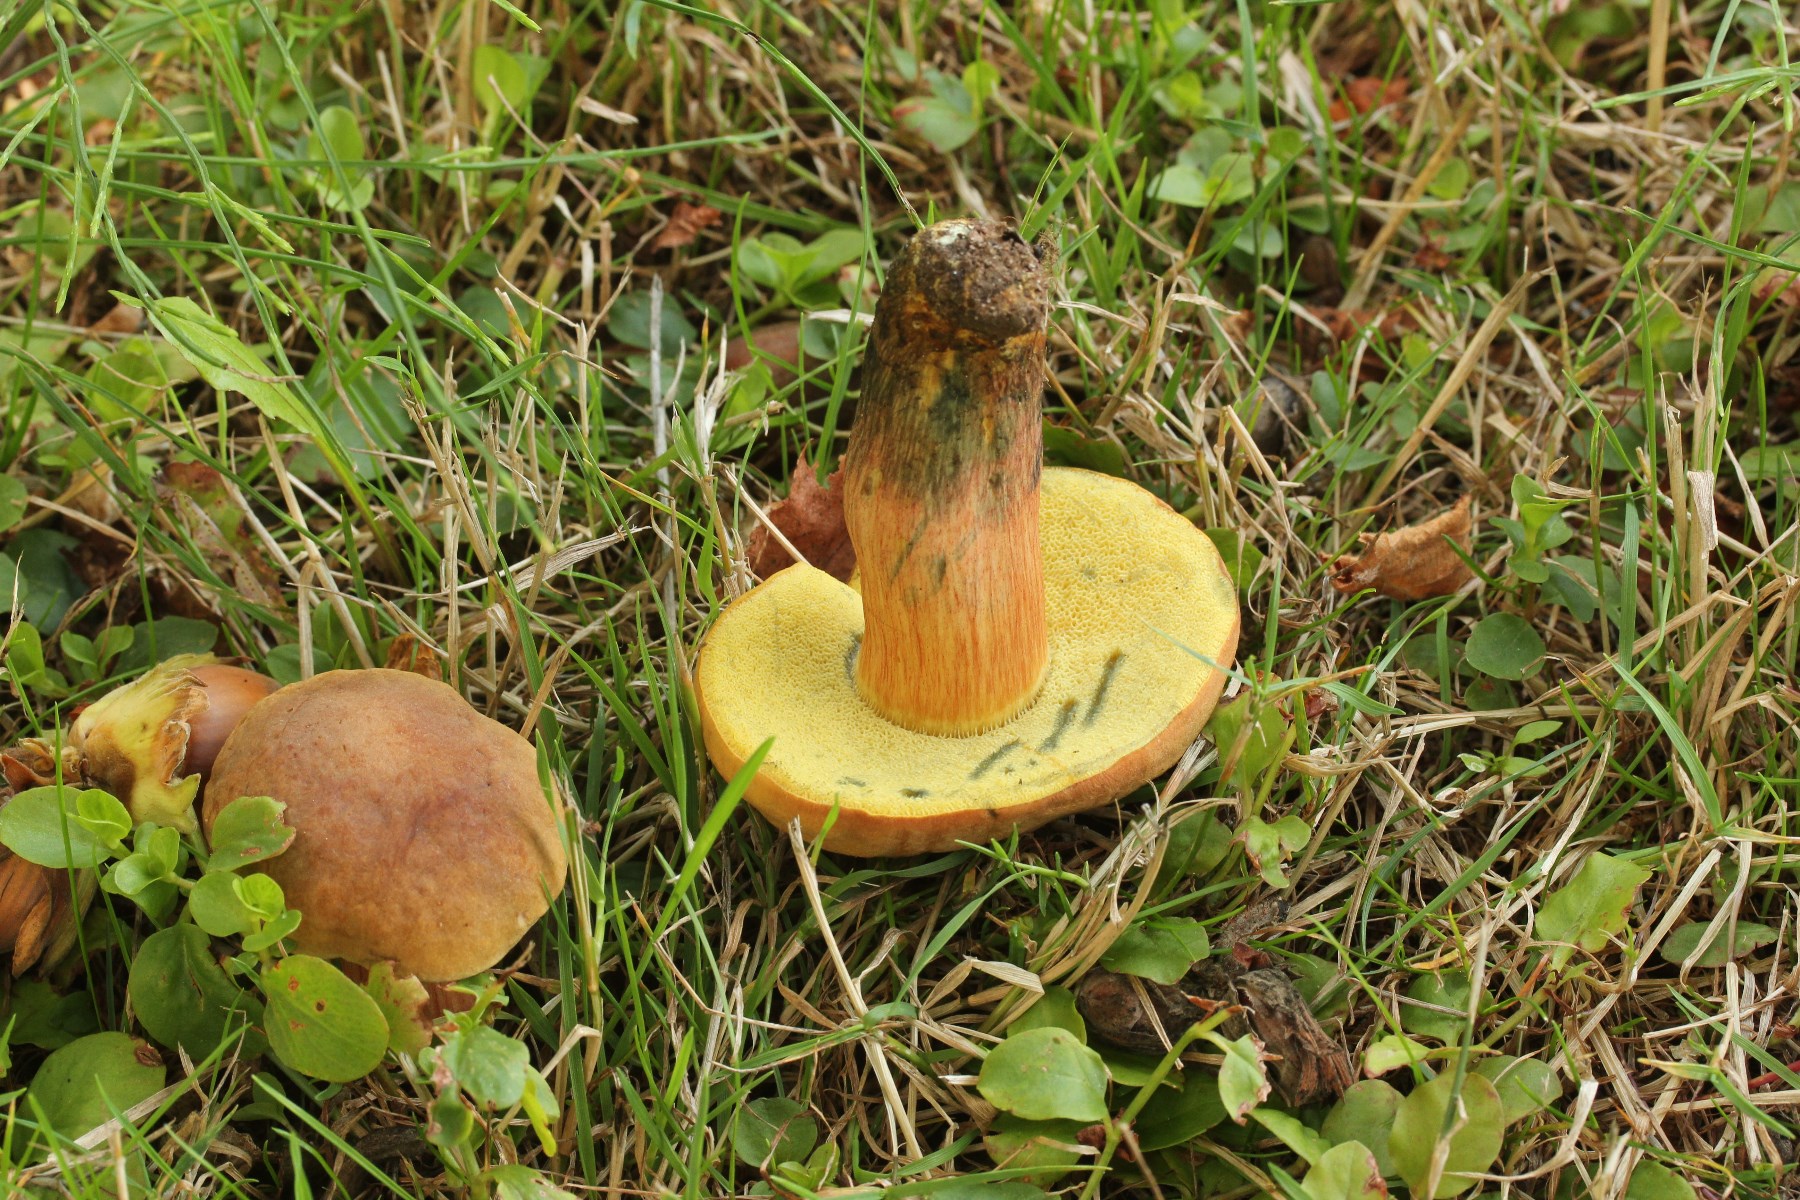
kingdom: Fungi
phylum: Basidiomycota
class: Agaricomycetes
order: Boletales
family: Boletaceae
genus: Hortiboletus
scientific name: Hortiboletus bubalinus
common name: aurora-rørhat
